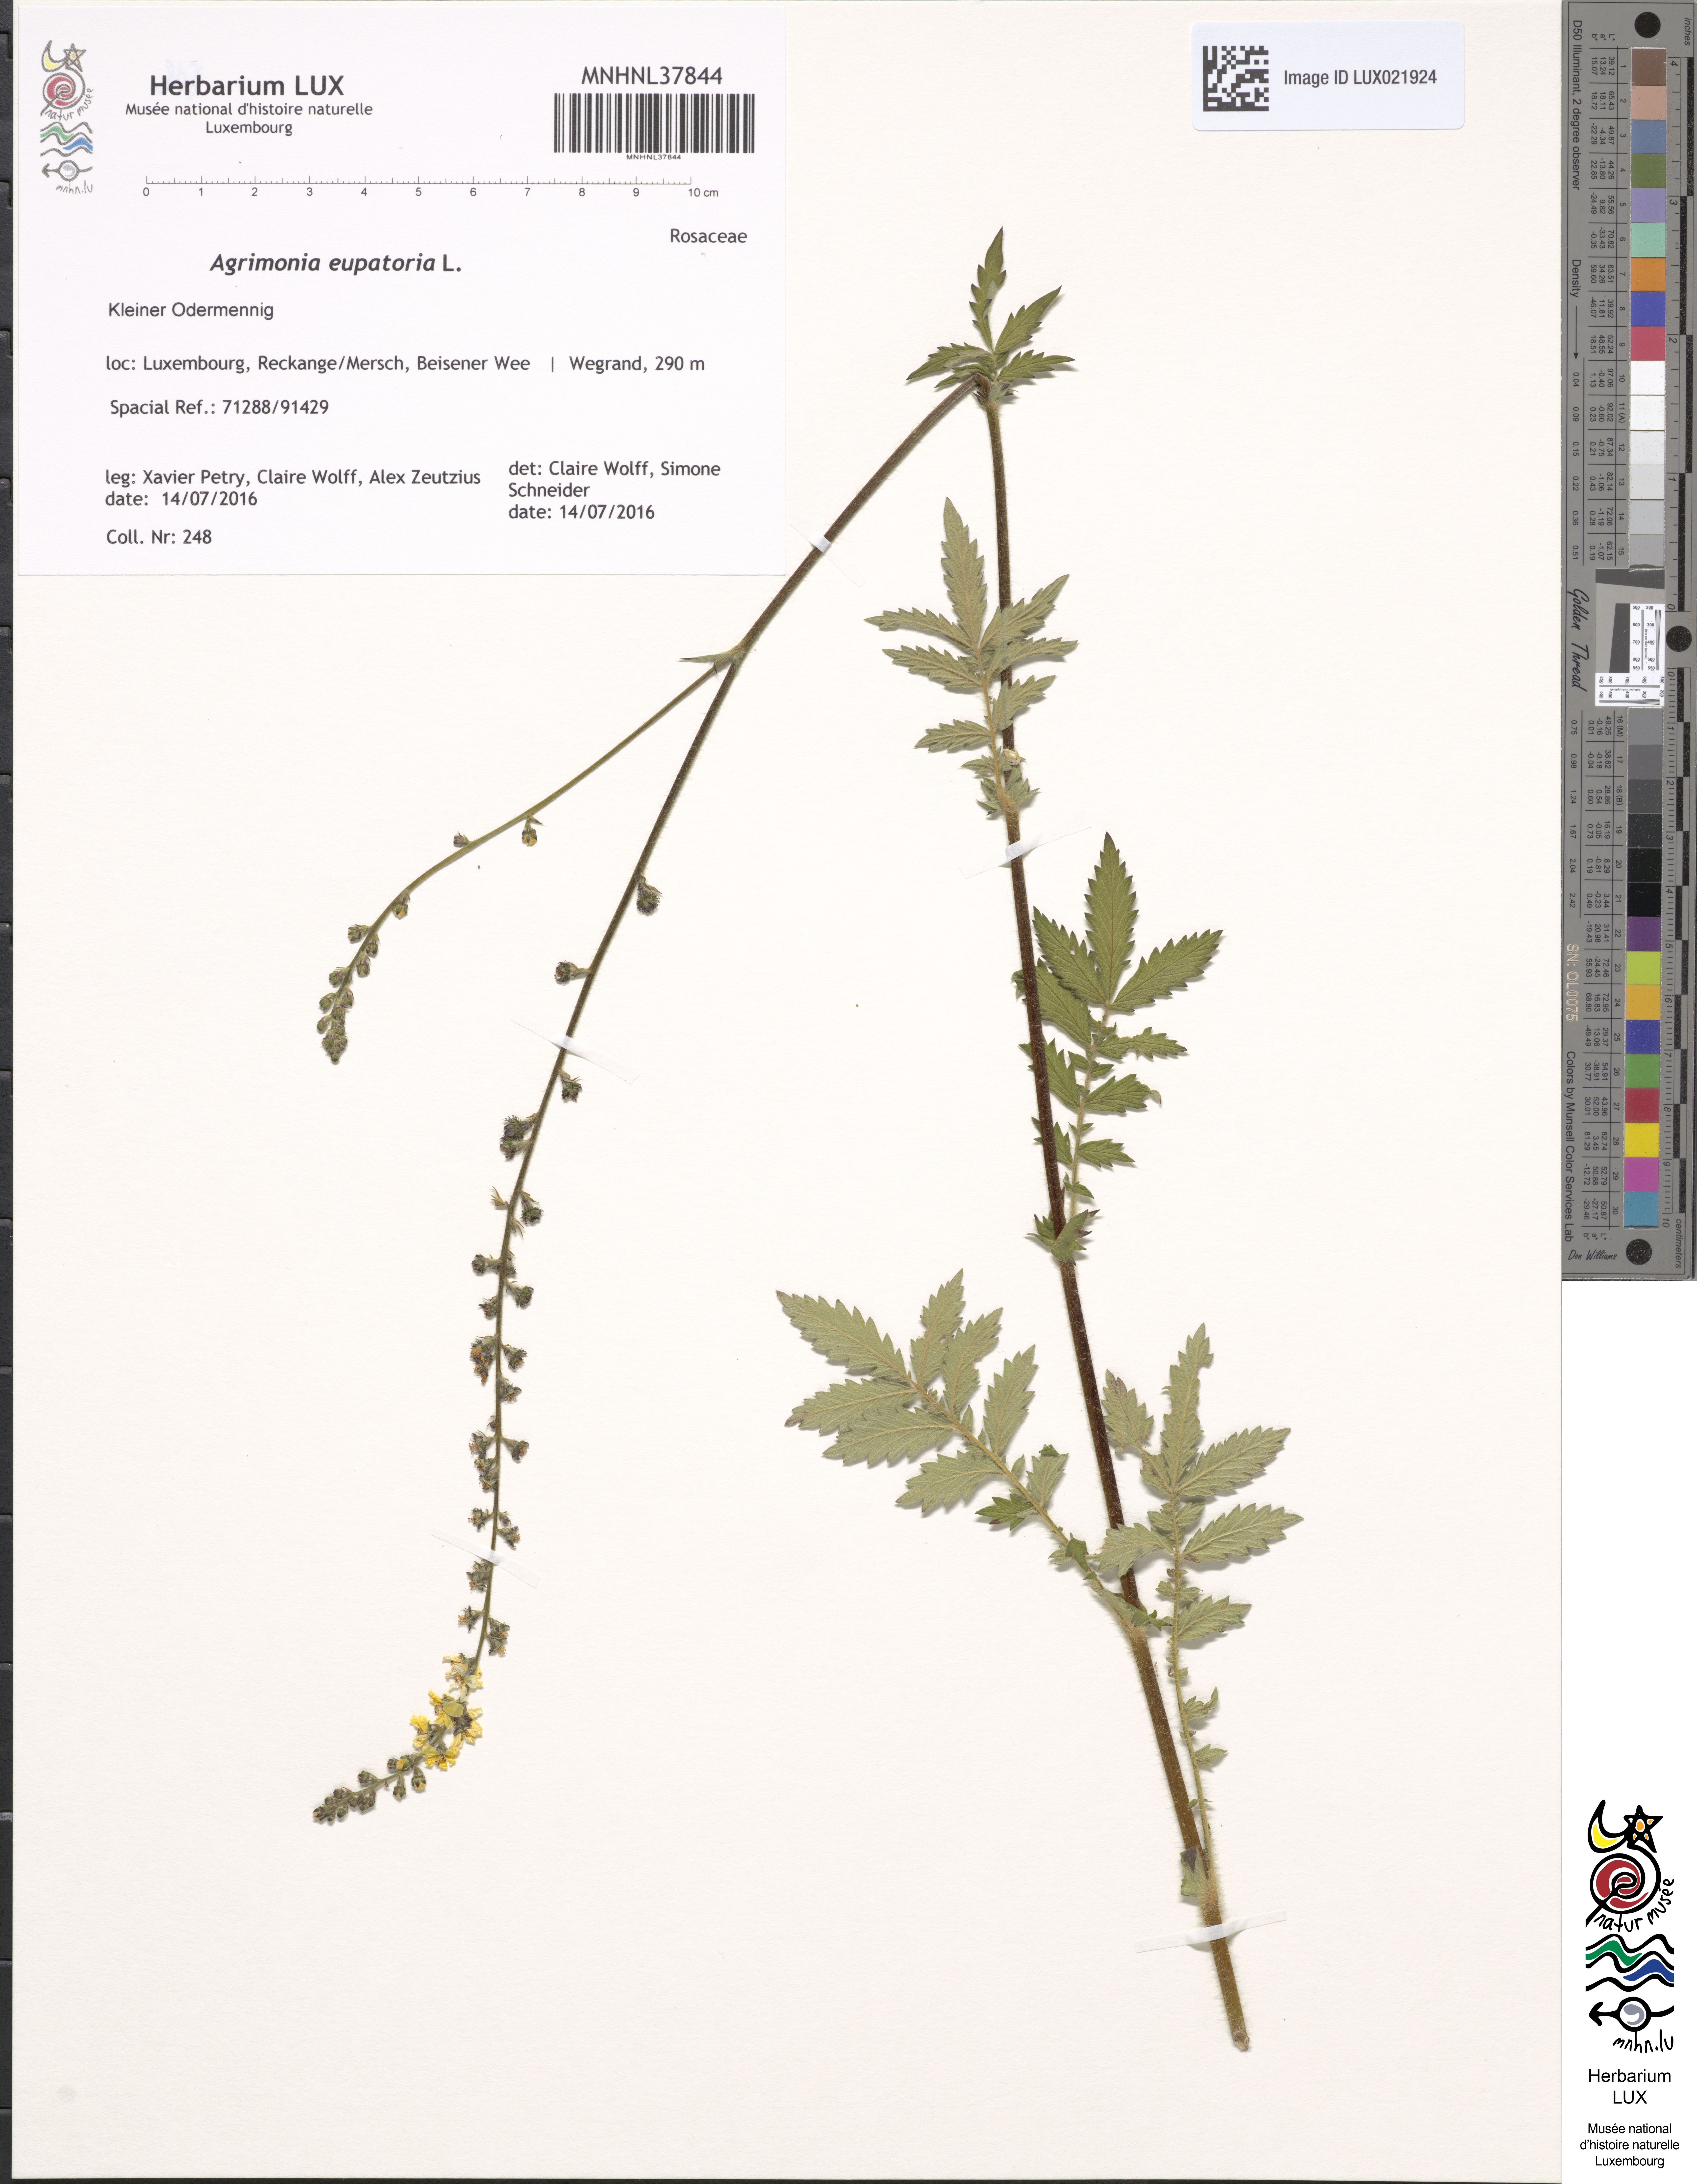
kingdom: Plantae
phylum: Tracheophyta
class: Magnoliopsida
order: Rosales
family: Rosaceae
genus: Agrimonia
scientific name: Agrimonia eupatoria
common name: Agrimony
